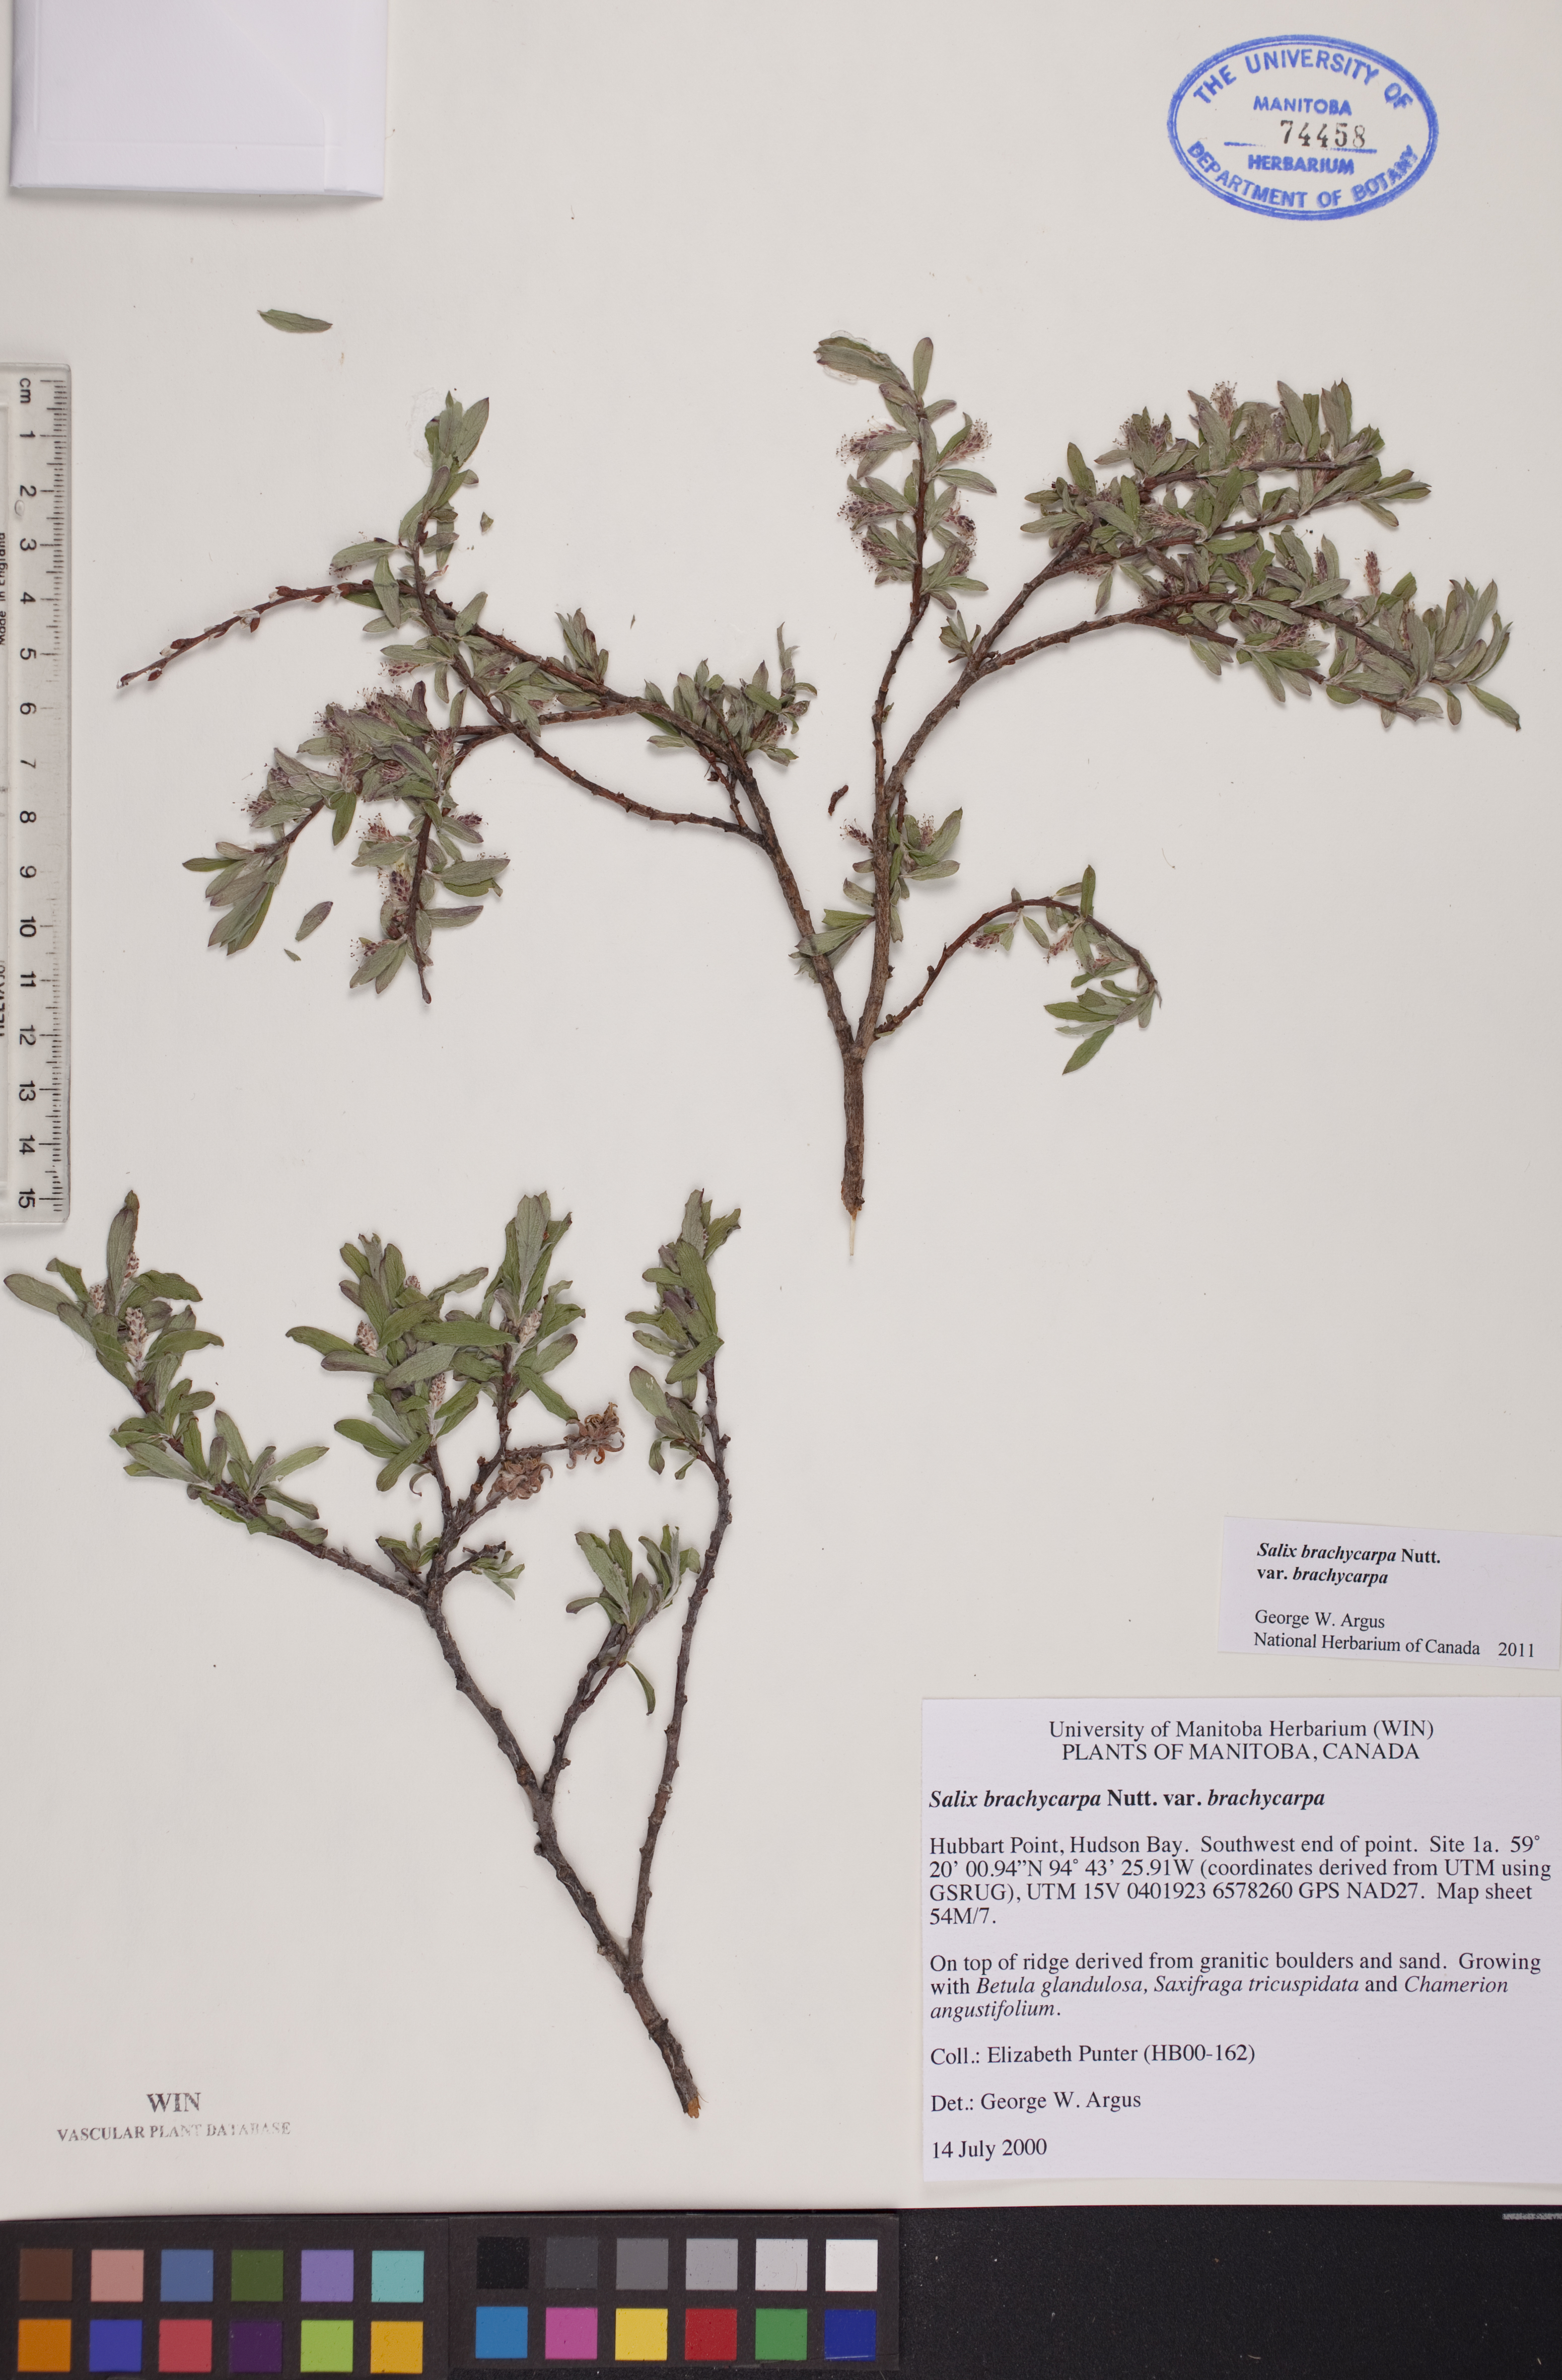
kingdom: Plantae
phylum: Tracheophyta
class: Magnoliopsida
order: Malpighiales
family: Salicaceae
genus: Salix
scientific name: Salix brachycarpa
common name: Barren-ground willow
